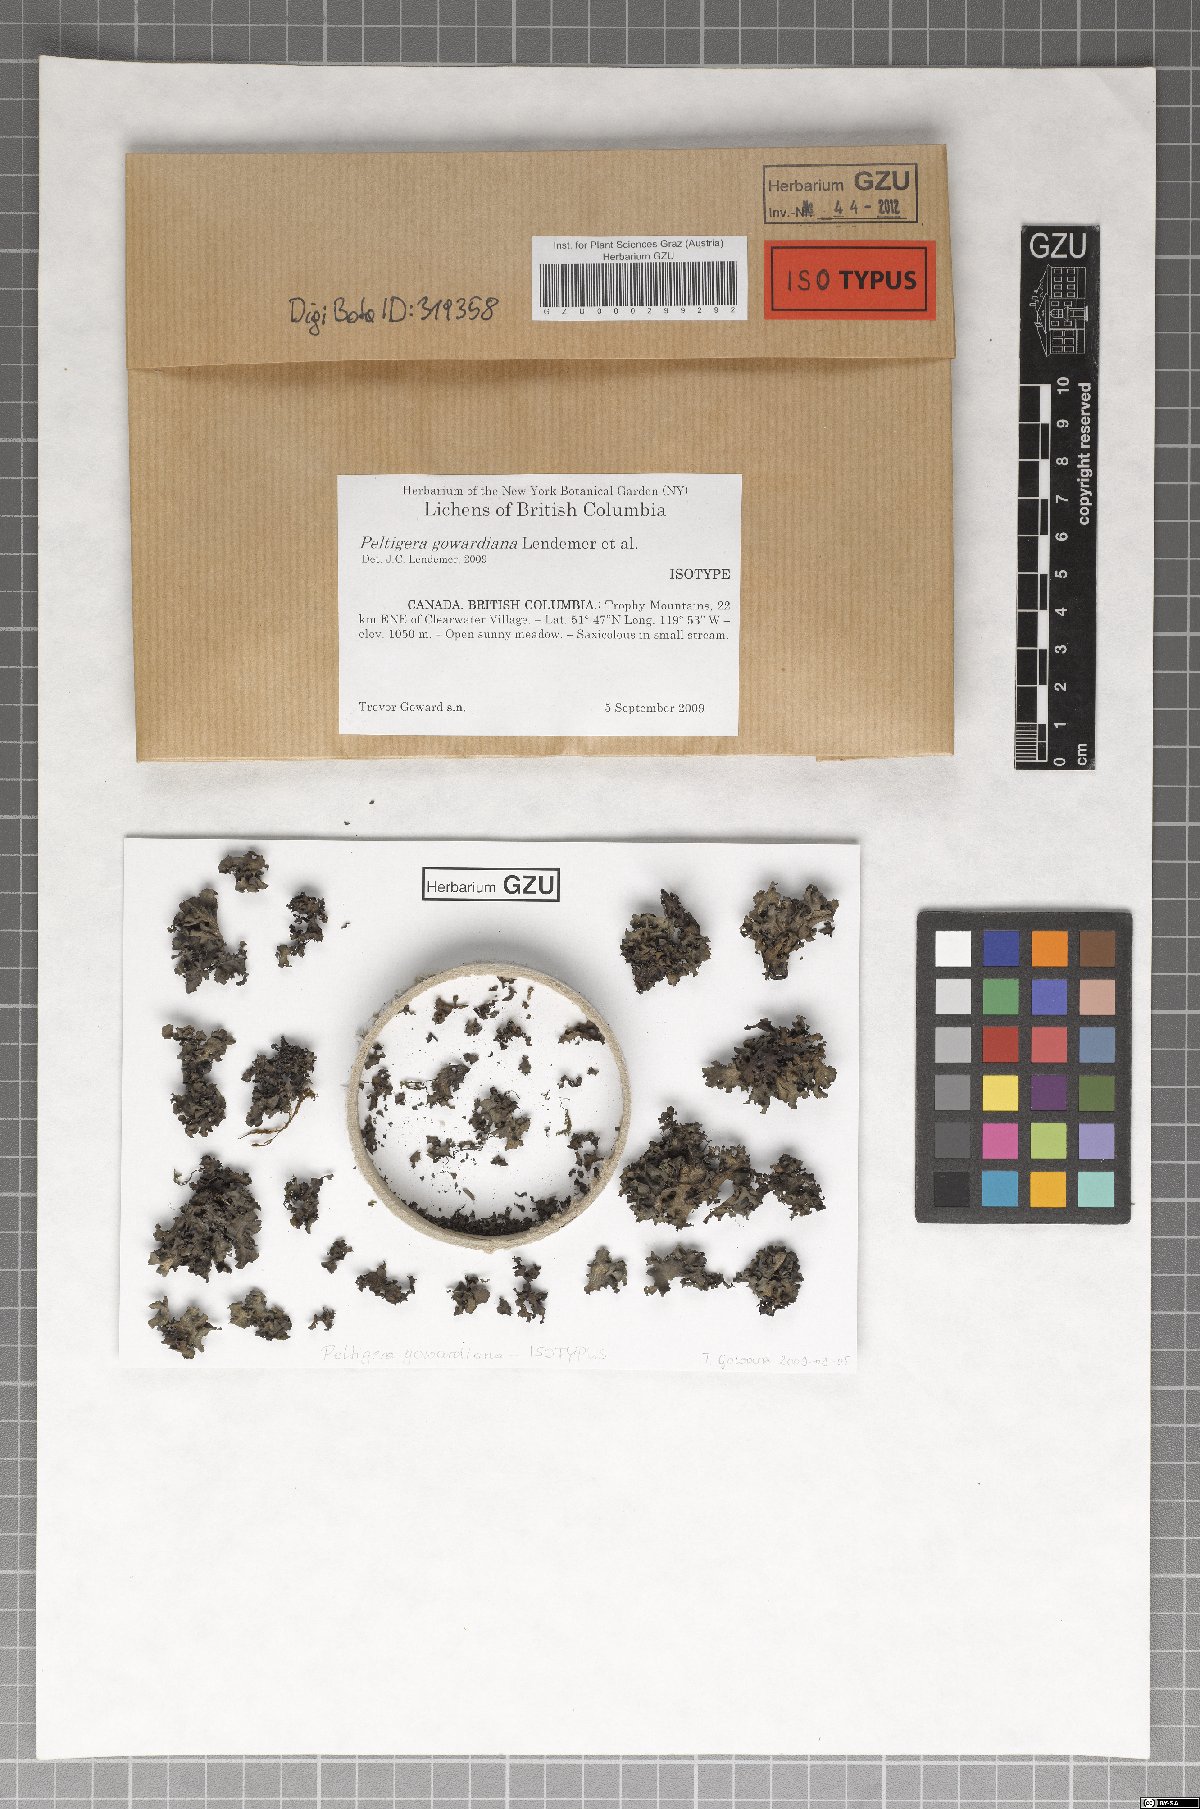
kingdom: Fungi
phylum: Ascomycota
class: Lecanoromycetes
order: Peltigerales
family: Peltigeraceae
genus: Peltigera
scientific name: Peltigera gowardii
